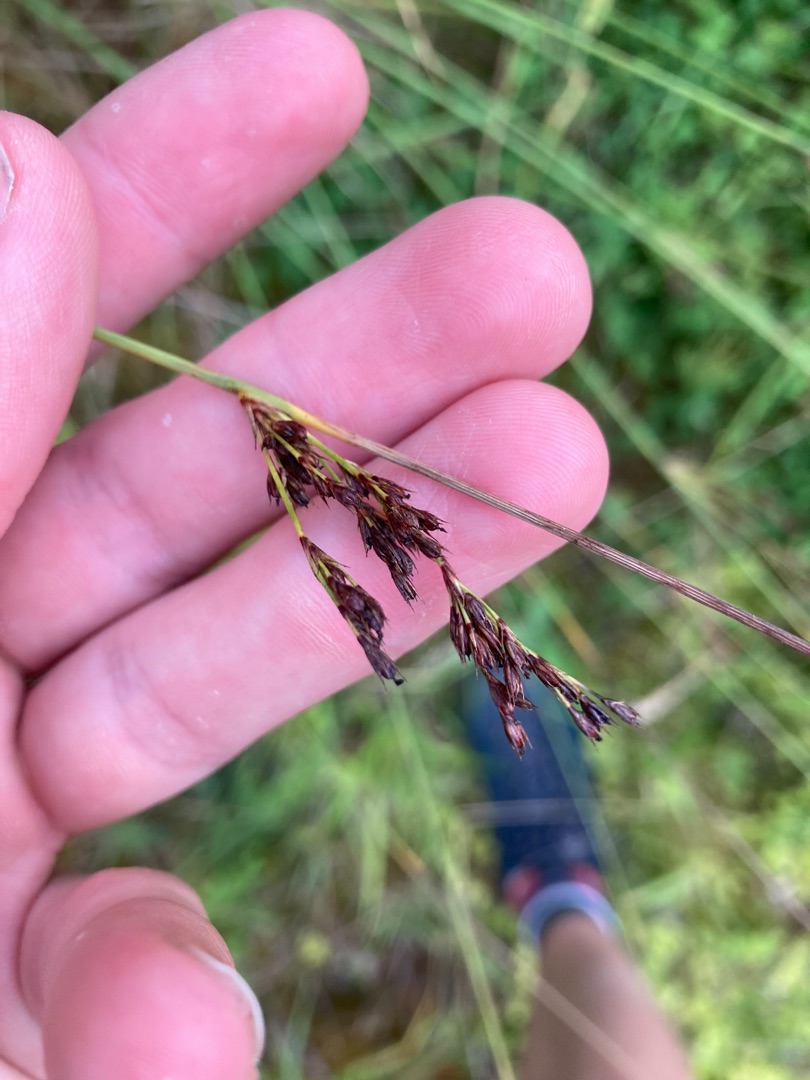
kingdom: Plantae
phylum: Tracheophyta
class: Liliopsida
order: Poales
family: Juncaceae
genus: Juncus
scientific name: Juncus inflexus
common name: Blågrå siv
